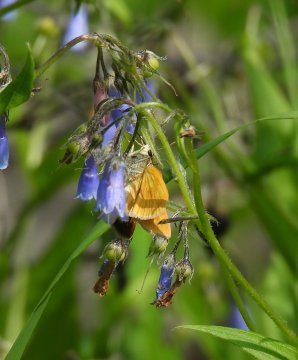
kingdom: Animalia
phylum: Arthropoda
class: Insecta
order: Lepidoptera
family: Hesperiidae
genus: Polites
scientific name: Polites
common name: Long Dash Skipper
